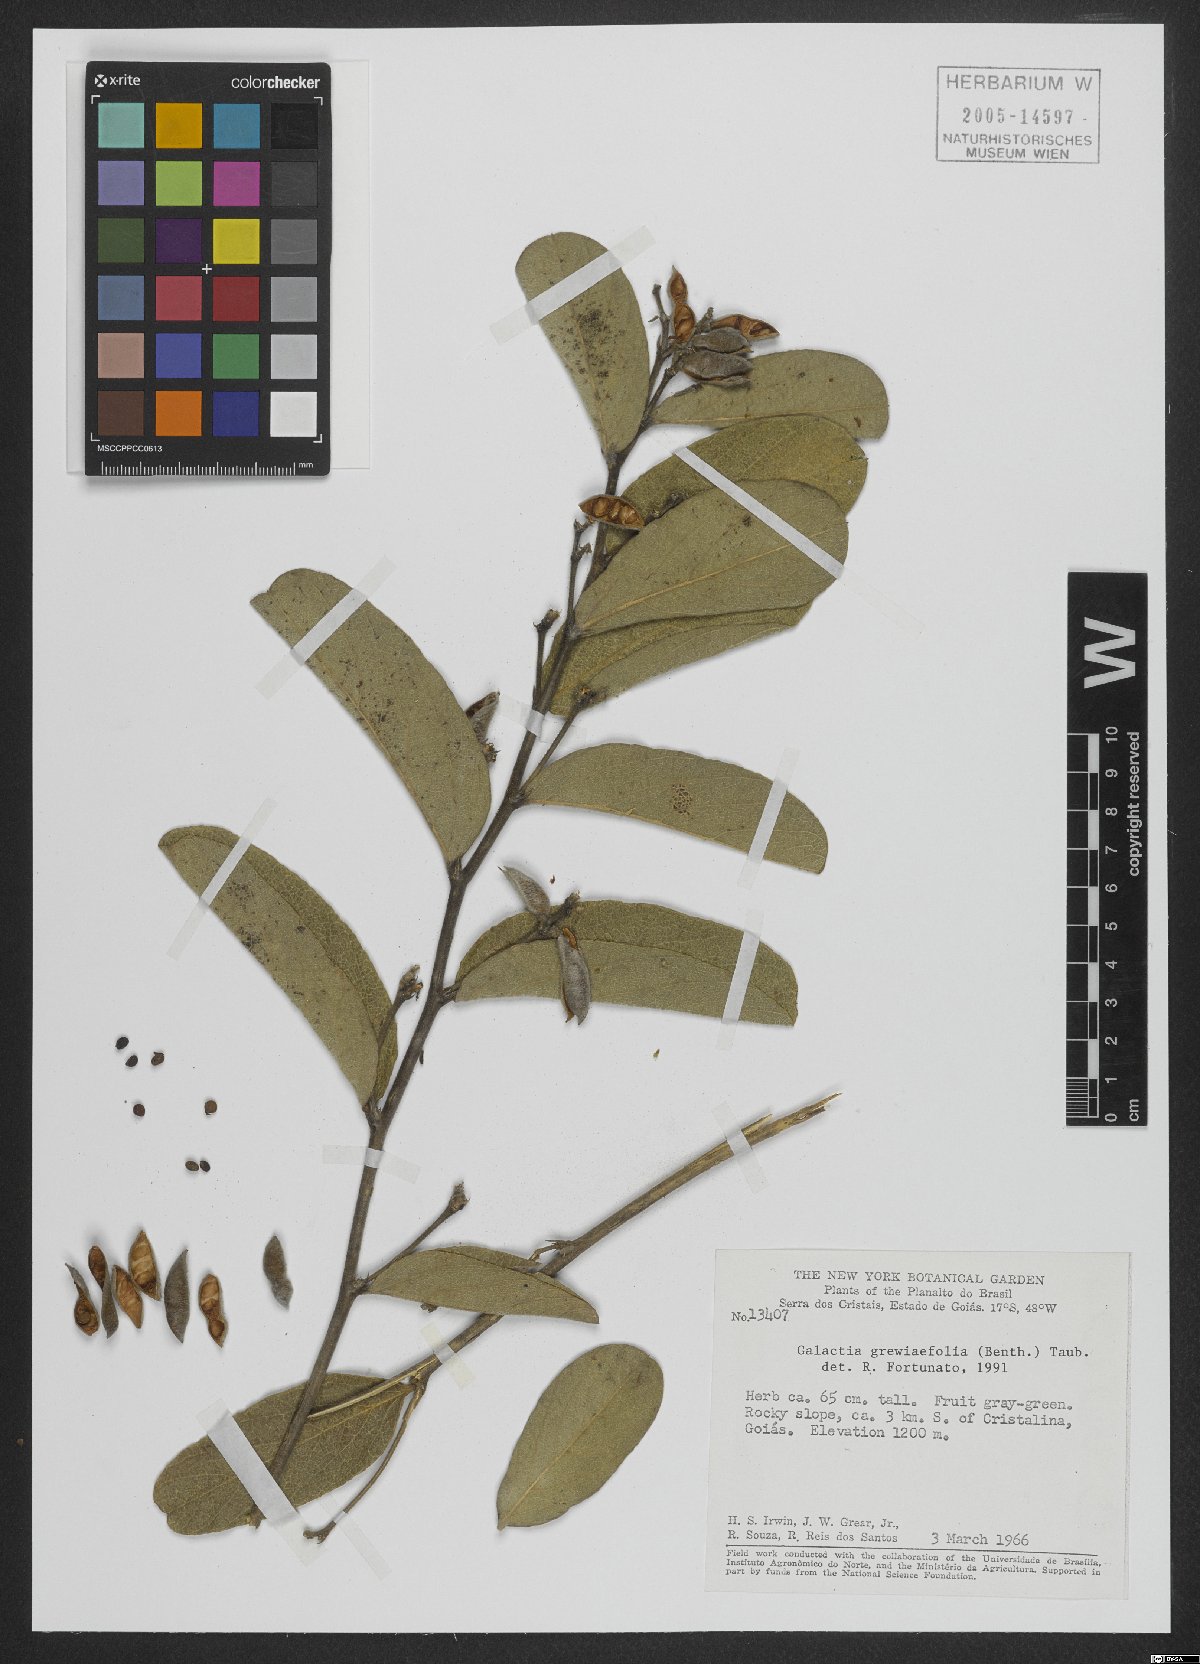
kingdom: Plantae
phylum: Tracheophyta
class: Magnoliopsida
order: Fabales
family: Fabaceae
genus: Cerradicola
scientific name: Cerradicola grewiifolia
